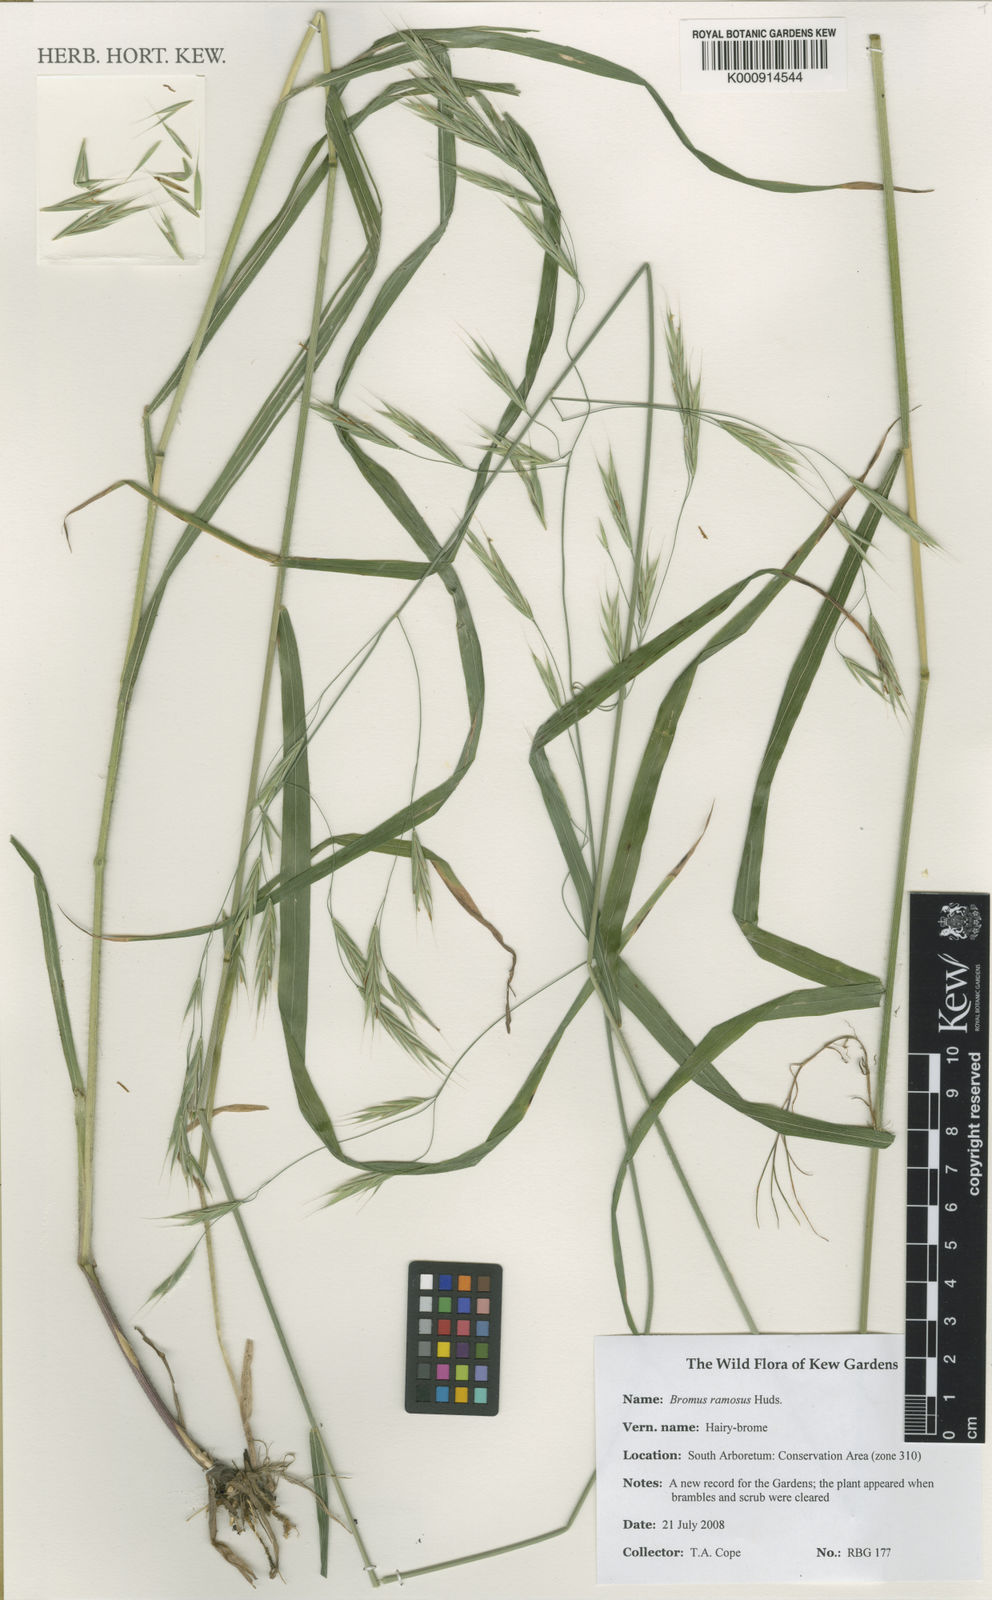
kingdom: Plantae
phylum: Tracheophyta
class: Liliopsida
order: Poales
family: Poaceae
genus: Bromus
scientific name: Bromus ramosus
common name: Hairy brome
